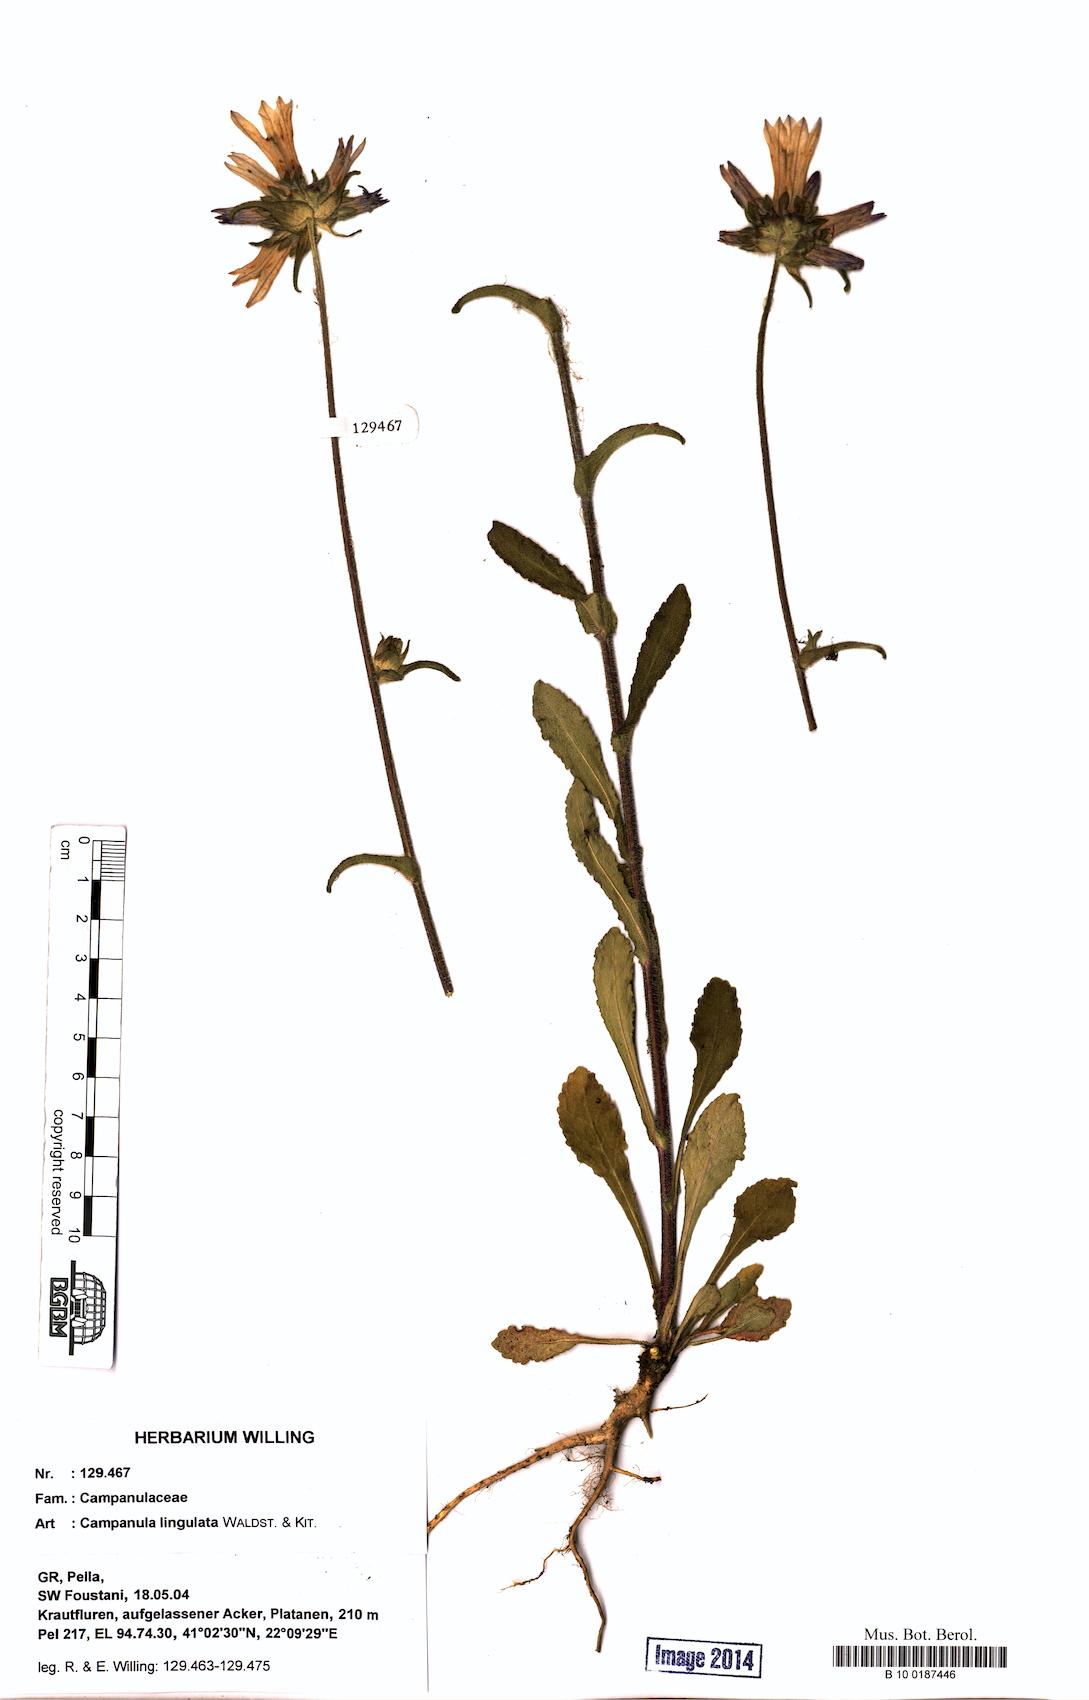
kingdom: Plantae
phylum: Tracheophyta
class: Magnoliopsida
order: Asterales
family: Campanulaceae
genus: Campanula
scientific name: Campanula lingulata
